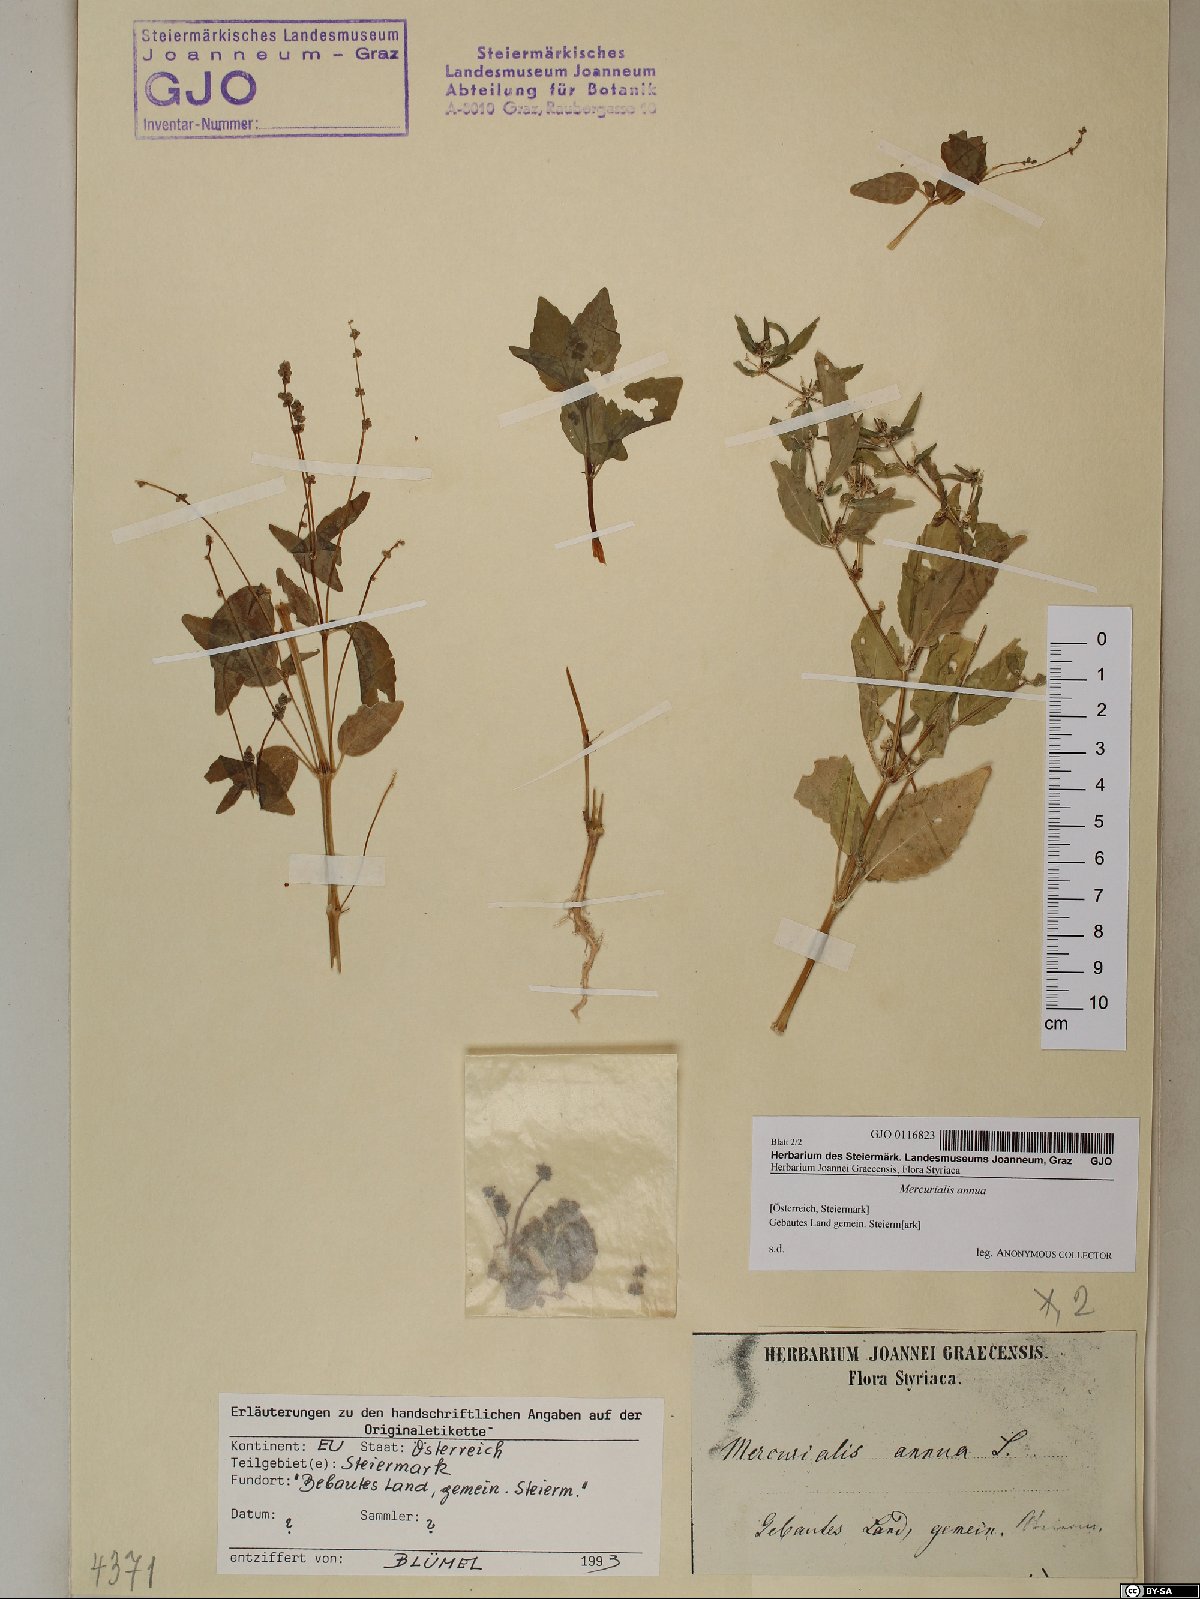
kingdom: Plantae
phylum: Tracheophyta
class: Magnoliopsida
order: Malpighiales
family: Euphorbiaceae
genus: Mercurialis
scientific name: Mercurialis annua
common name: Annual mercury
